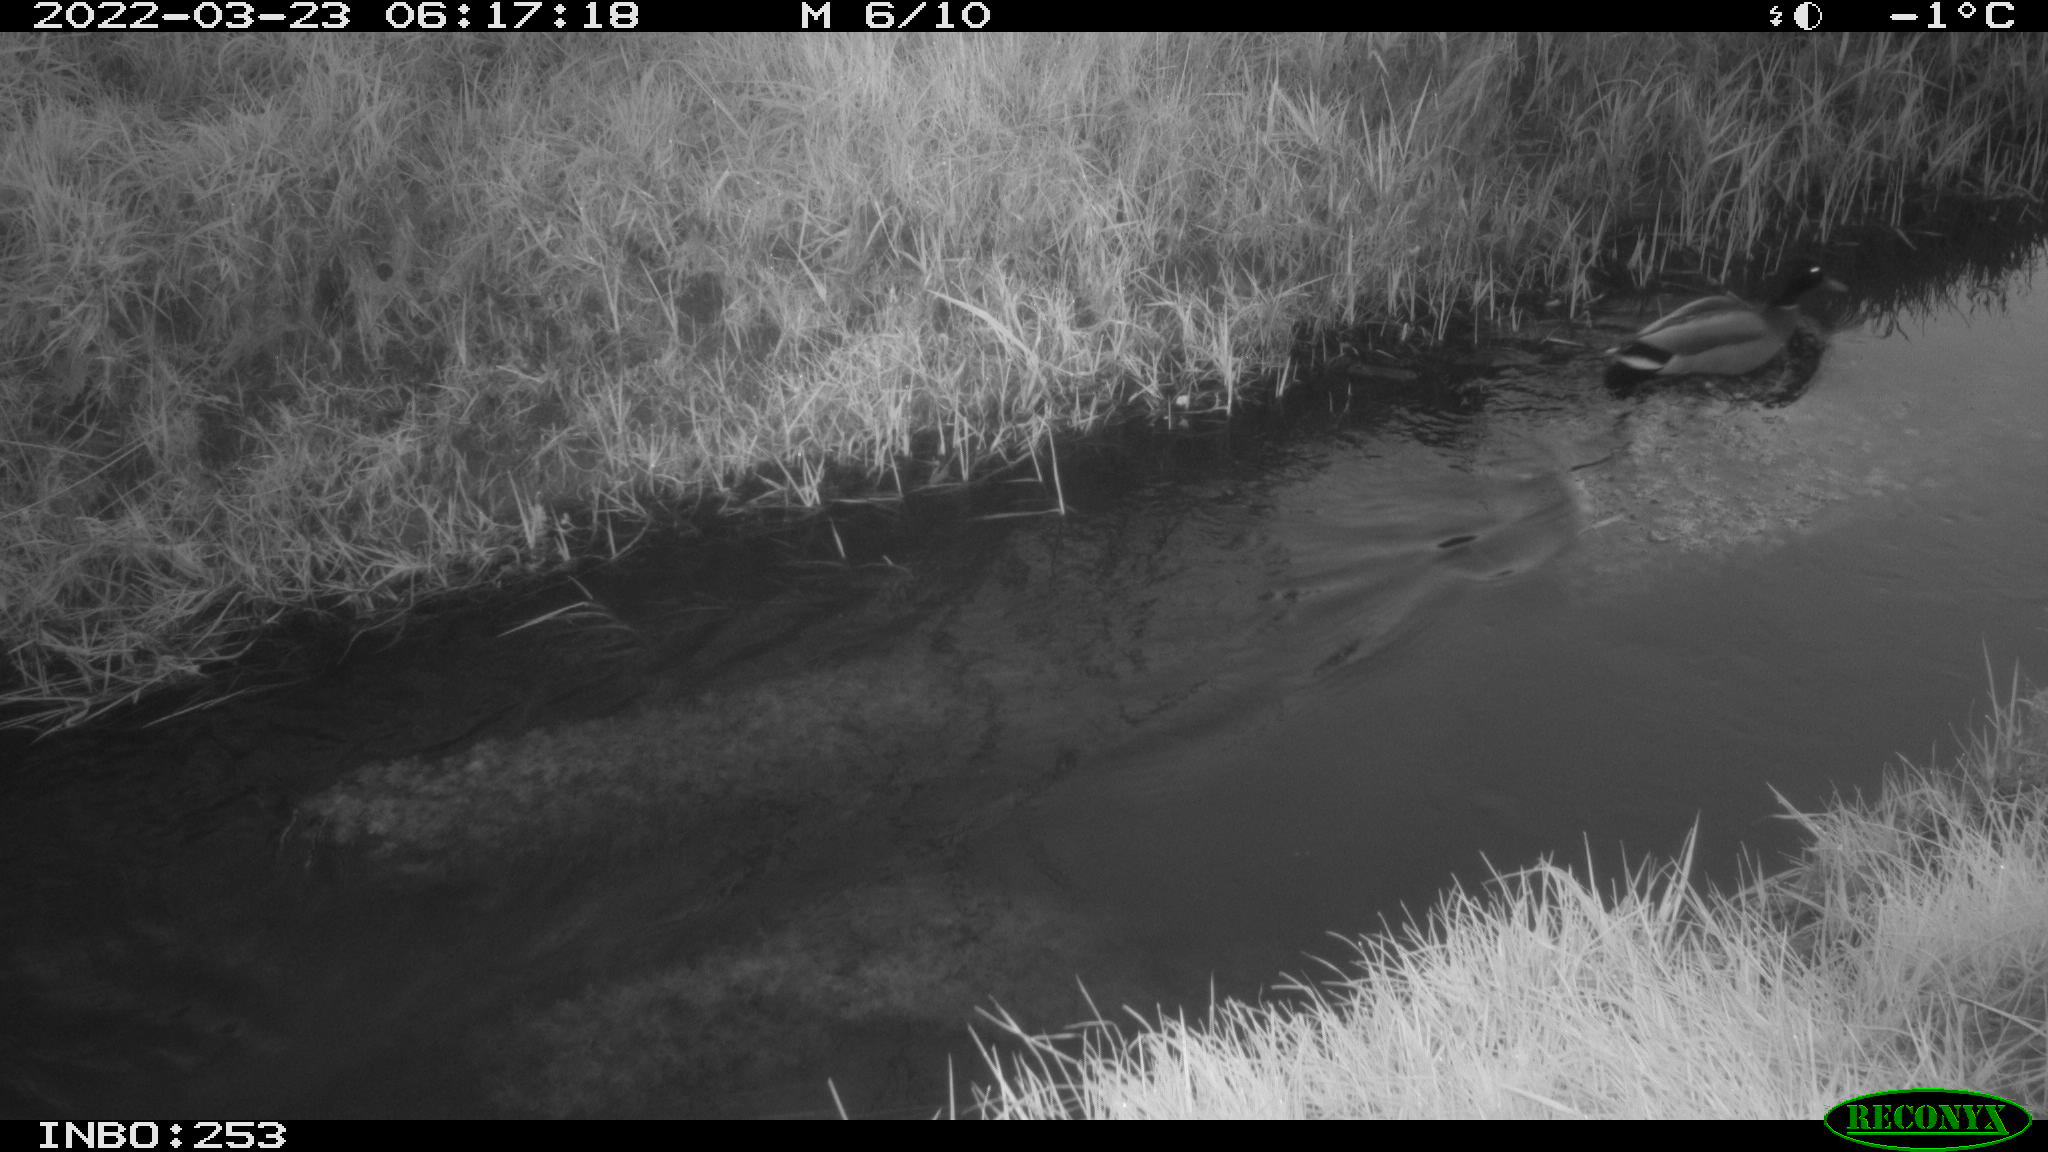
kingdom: Animalia
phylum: Chordata
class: Aves
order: Anseriformes
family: Anatidae
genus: Anas
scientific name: Anas platyrhynchos
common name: Mallard
